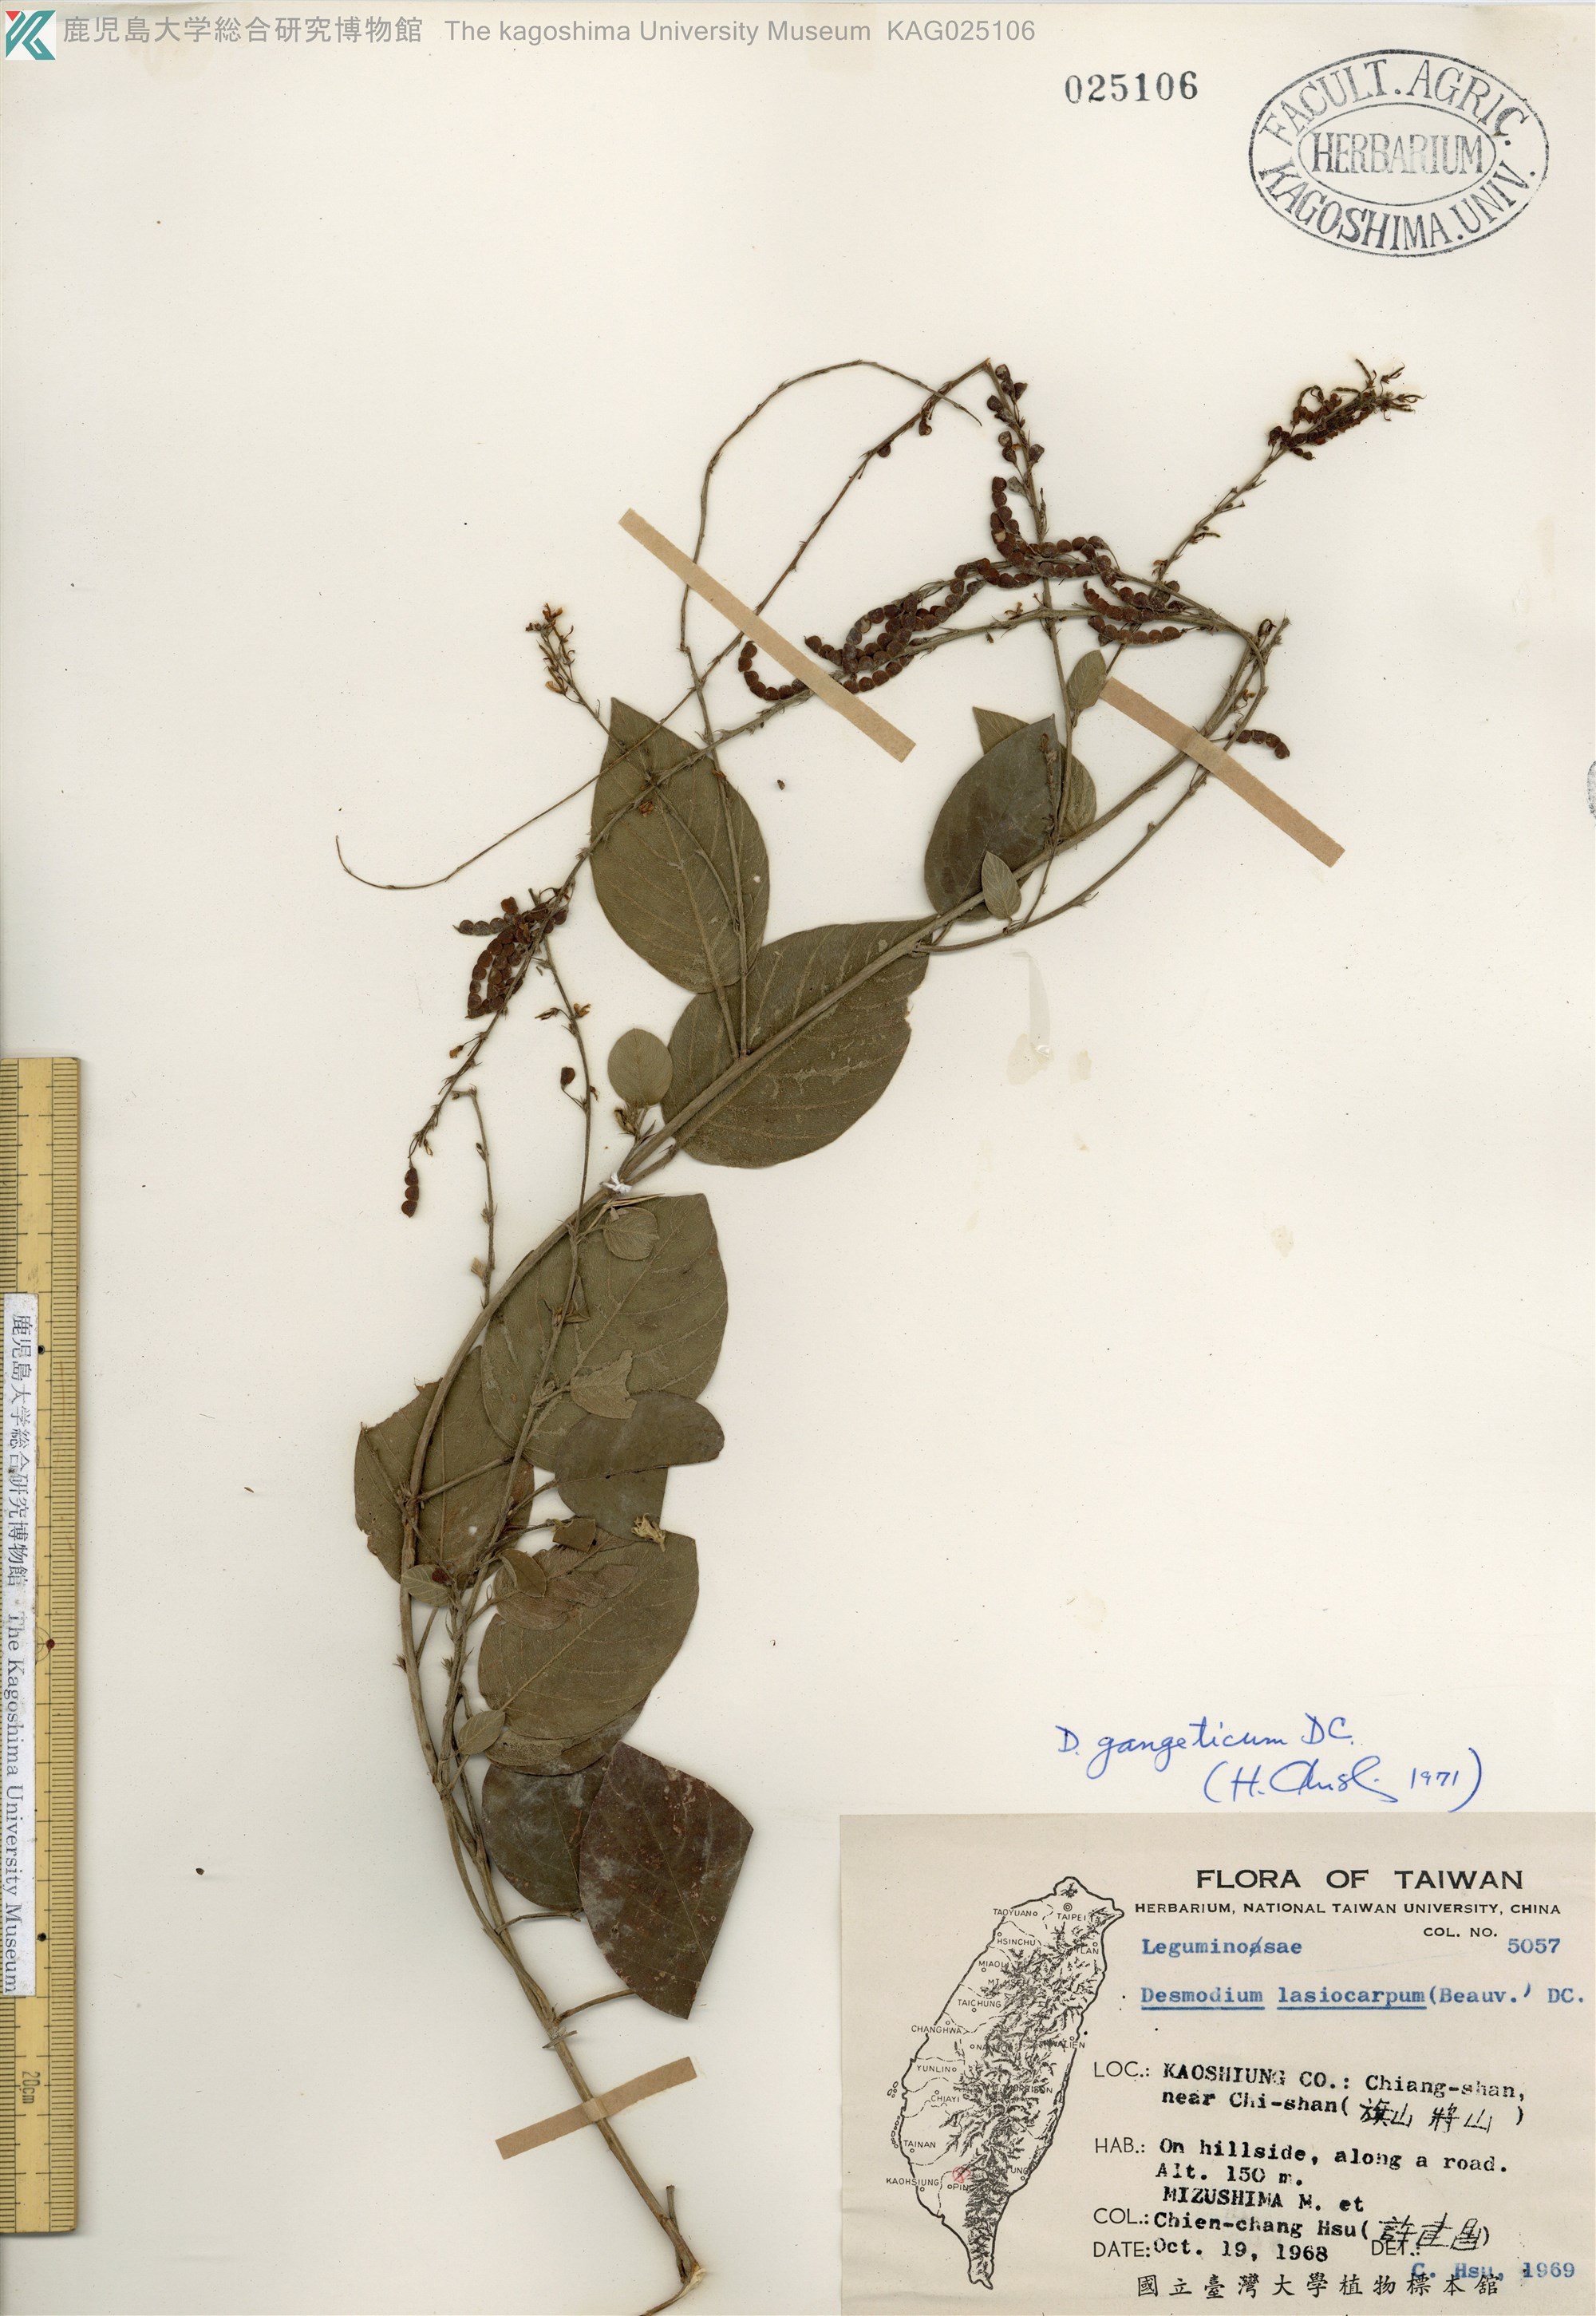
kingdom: Plantae
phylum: Tracheophyta
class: Magnoliopsida
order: Fabales
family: Fabaceae
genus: Pleurolobus
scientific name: Pleurolobus gangeticus
